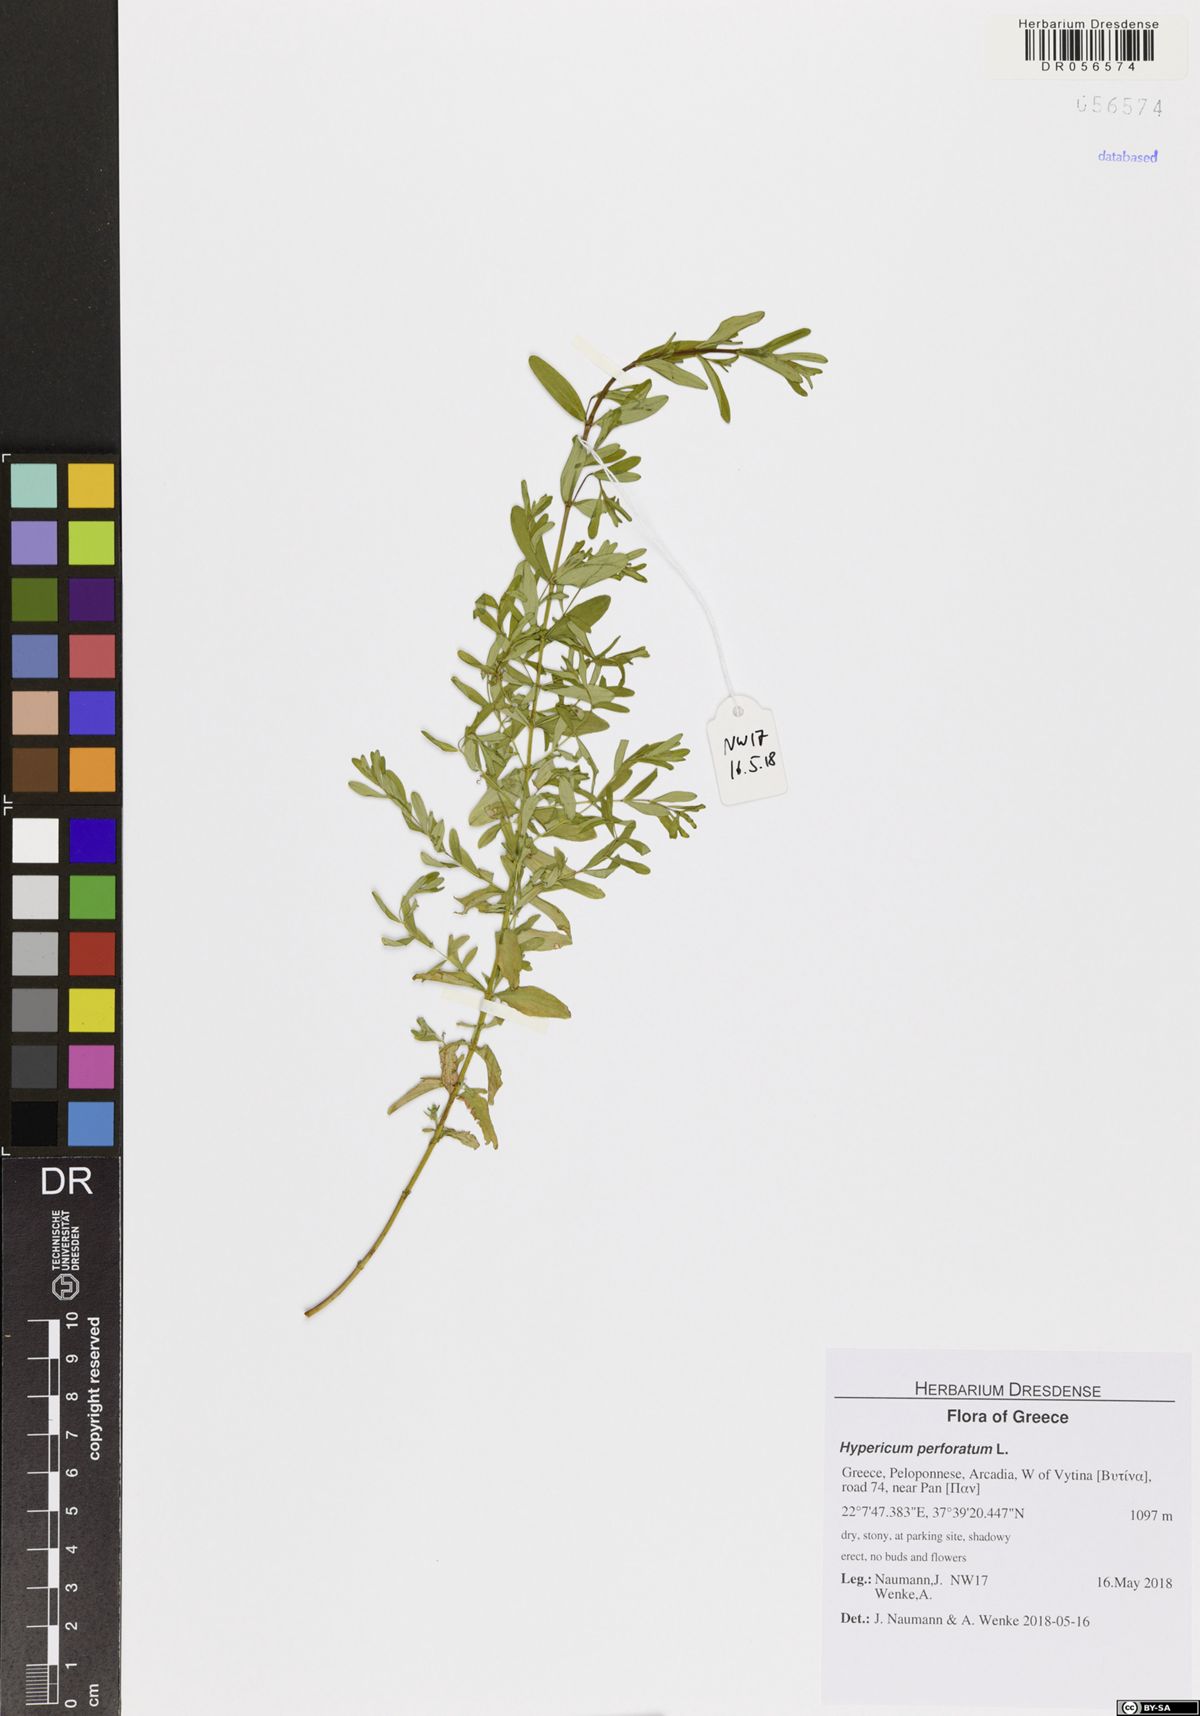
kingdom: Plantae
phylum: Tracheophyta
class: Magnoliopsida
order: Malpighiales
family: Hypericaceae
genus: Hypericum
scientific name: Hypericum perforatum
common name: Common st. johnswort
